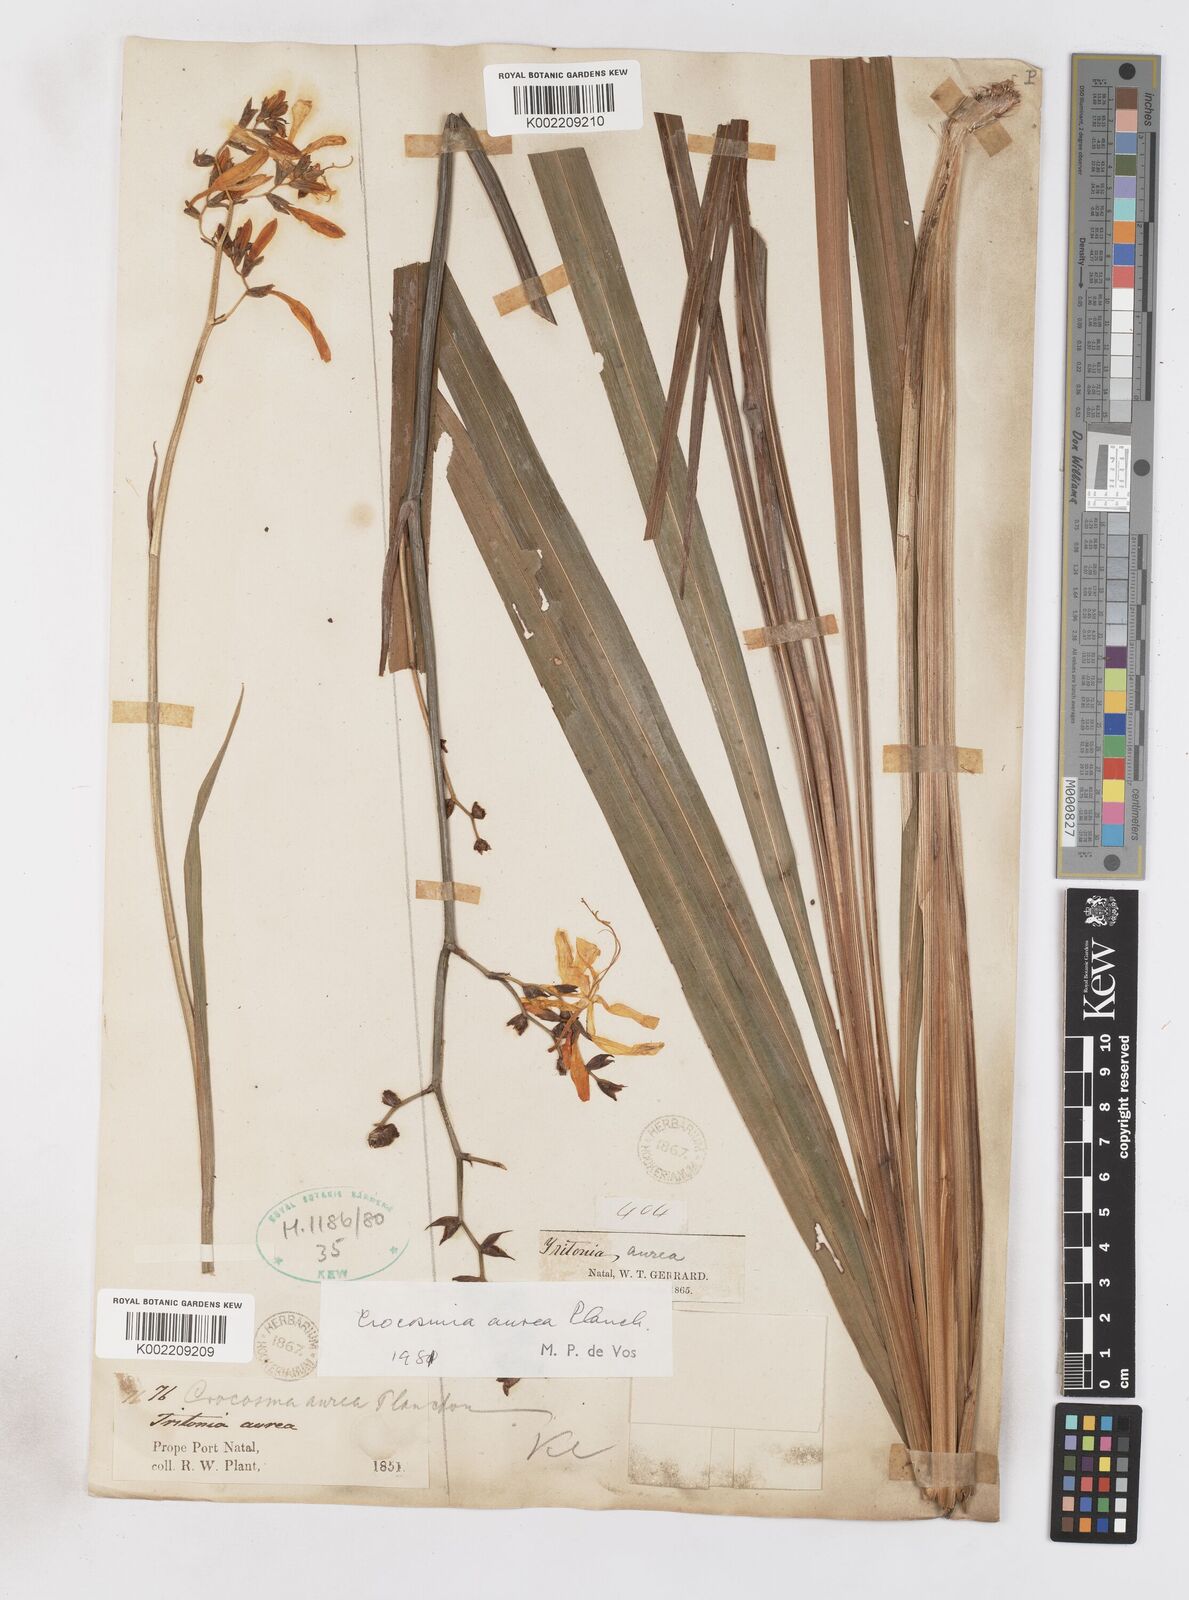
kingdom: Plantae
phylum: Tracheophyta
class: Liliopsida
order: Asparagales
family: Iridaceae
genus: Crocosmia
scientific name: Crocosmia aurea
